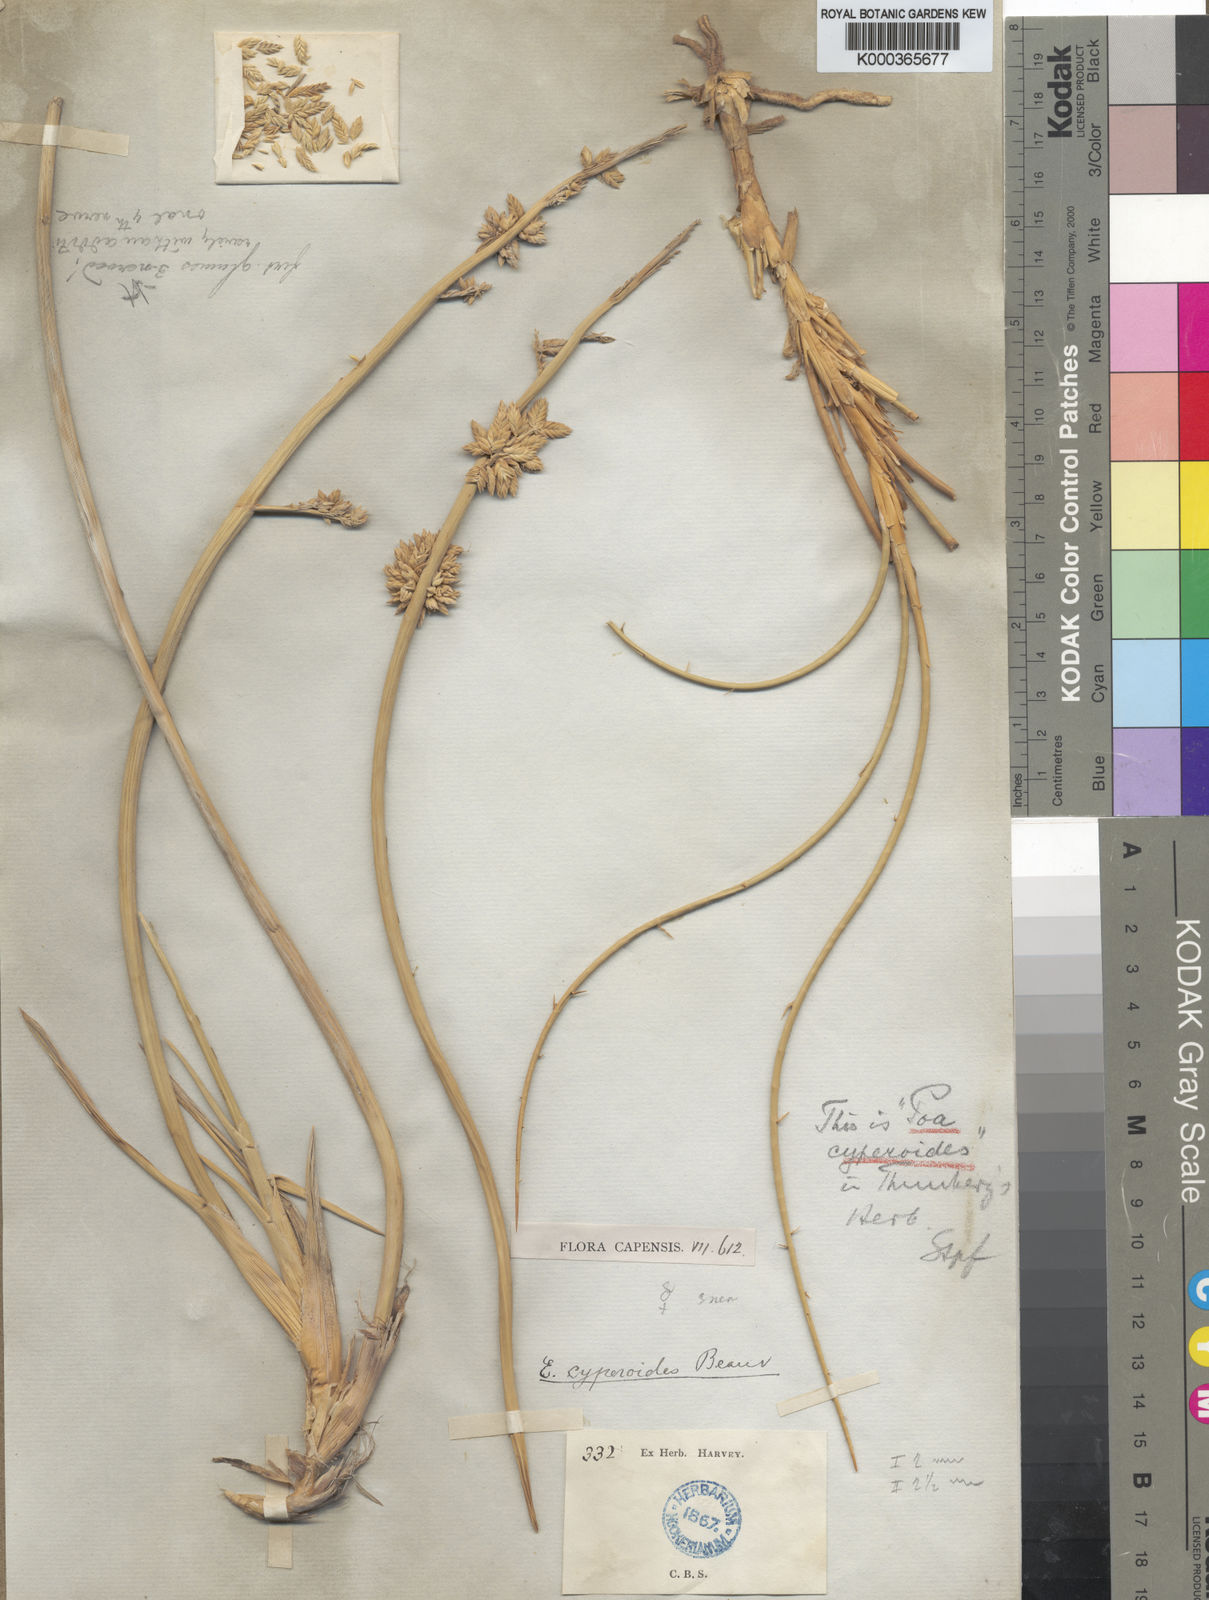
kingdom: Plantae
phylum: Tracheophyta
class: Liliopsida
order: Poales
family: Poaceae
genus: Cladoraphis
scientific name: Cladoraphis cyperoides
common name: Bristly lovegrass
